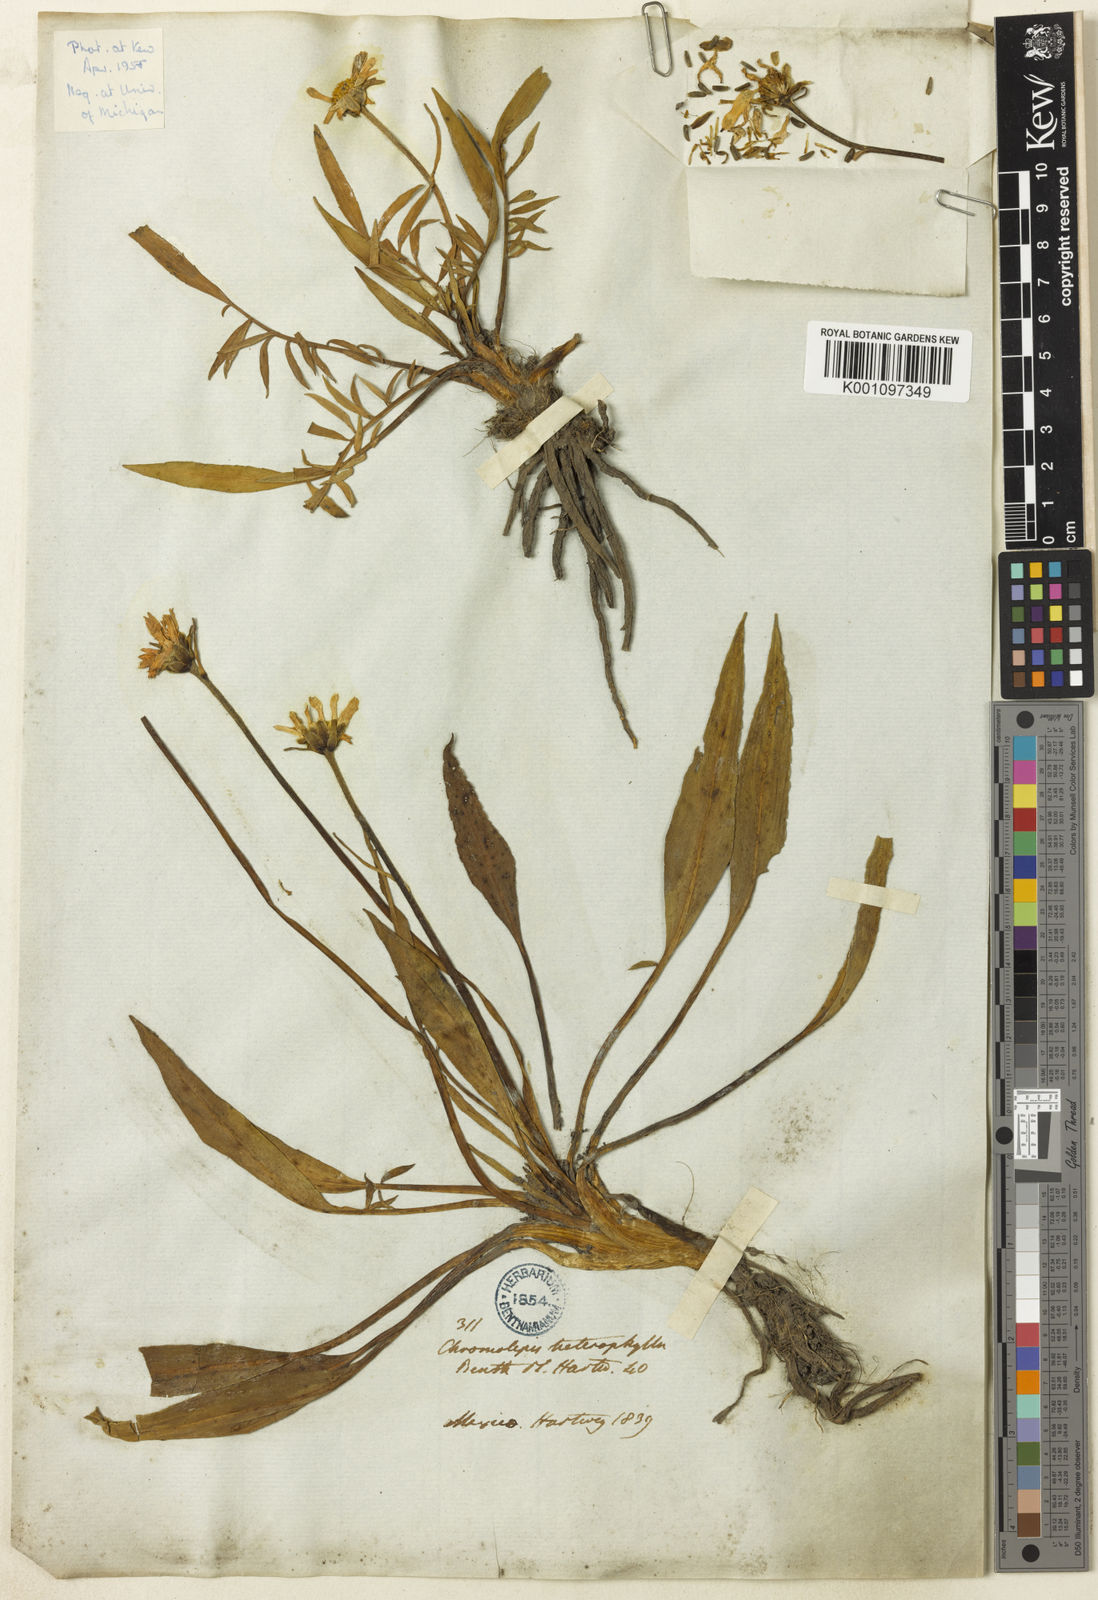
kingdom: Plantae
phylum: Tracheophyta
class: Magnoliopsida
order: Asterales
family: Asteraceae
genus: Chromolepis
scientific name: Chromolepis heterophylla
